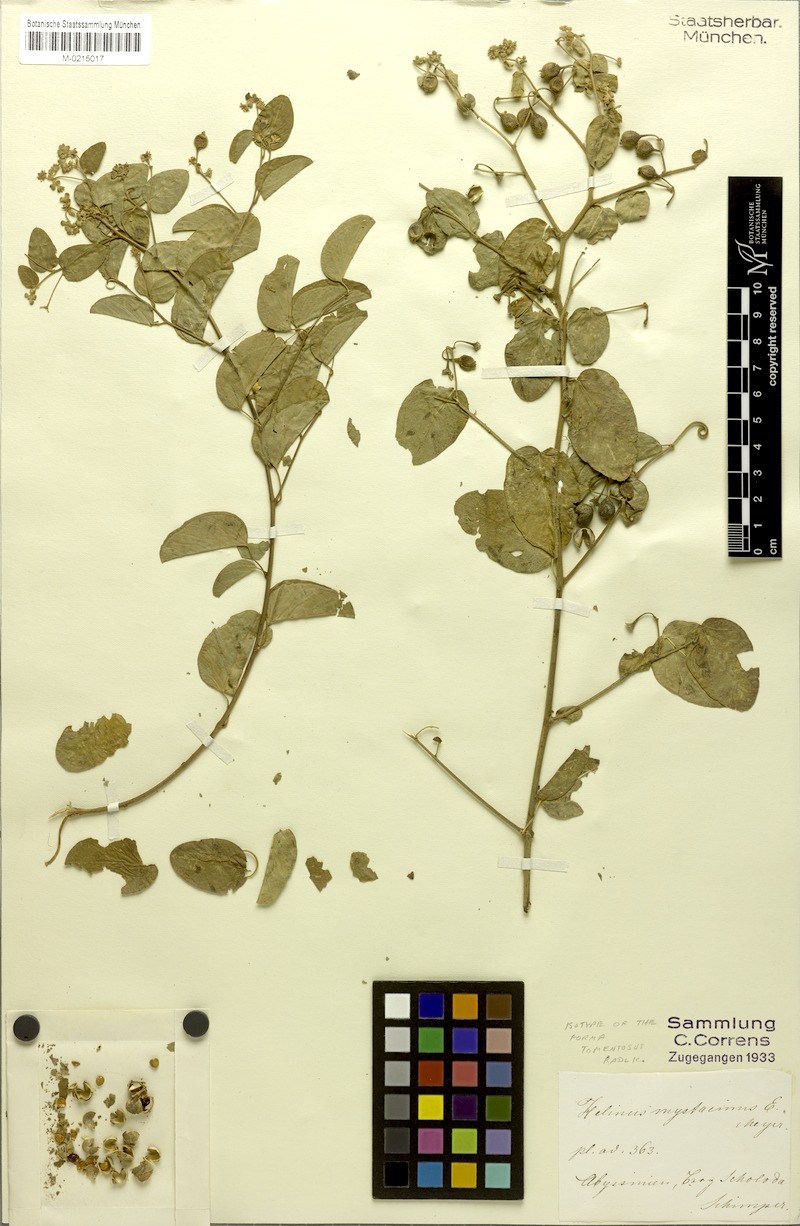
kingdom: Plantae
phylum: Tracheophyta
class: Magnoliopsida
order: Rosales
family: Rhamnaceae
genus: Helinus
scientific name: Helinus mystacinus
